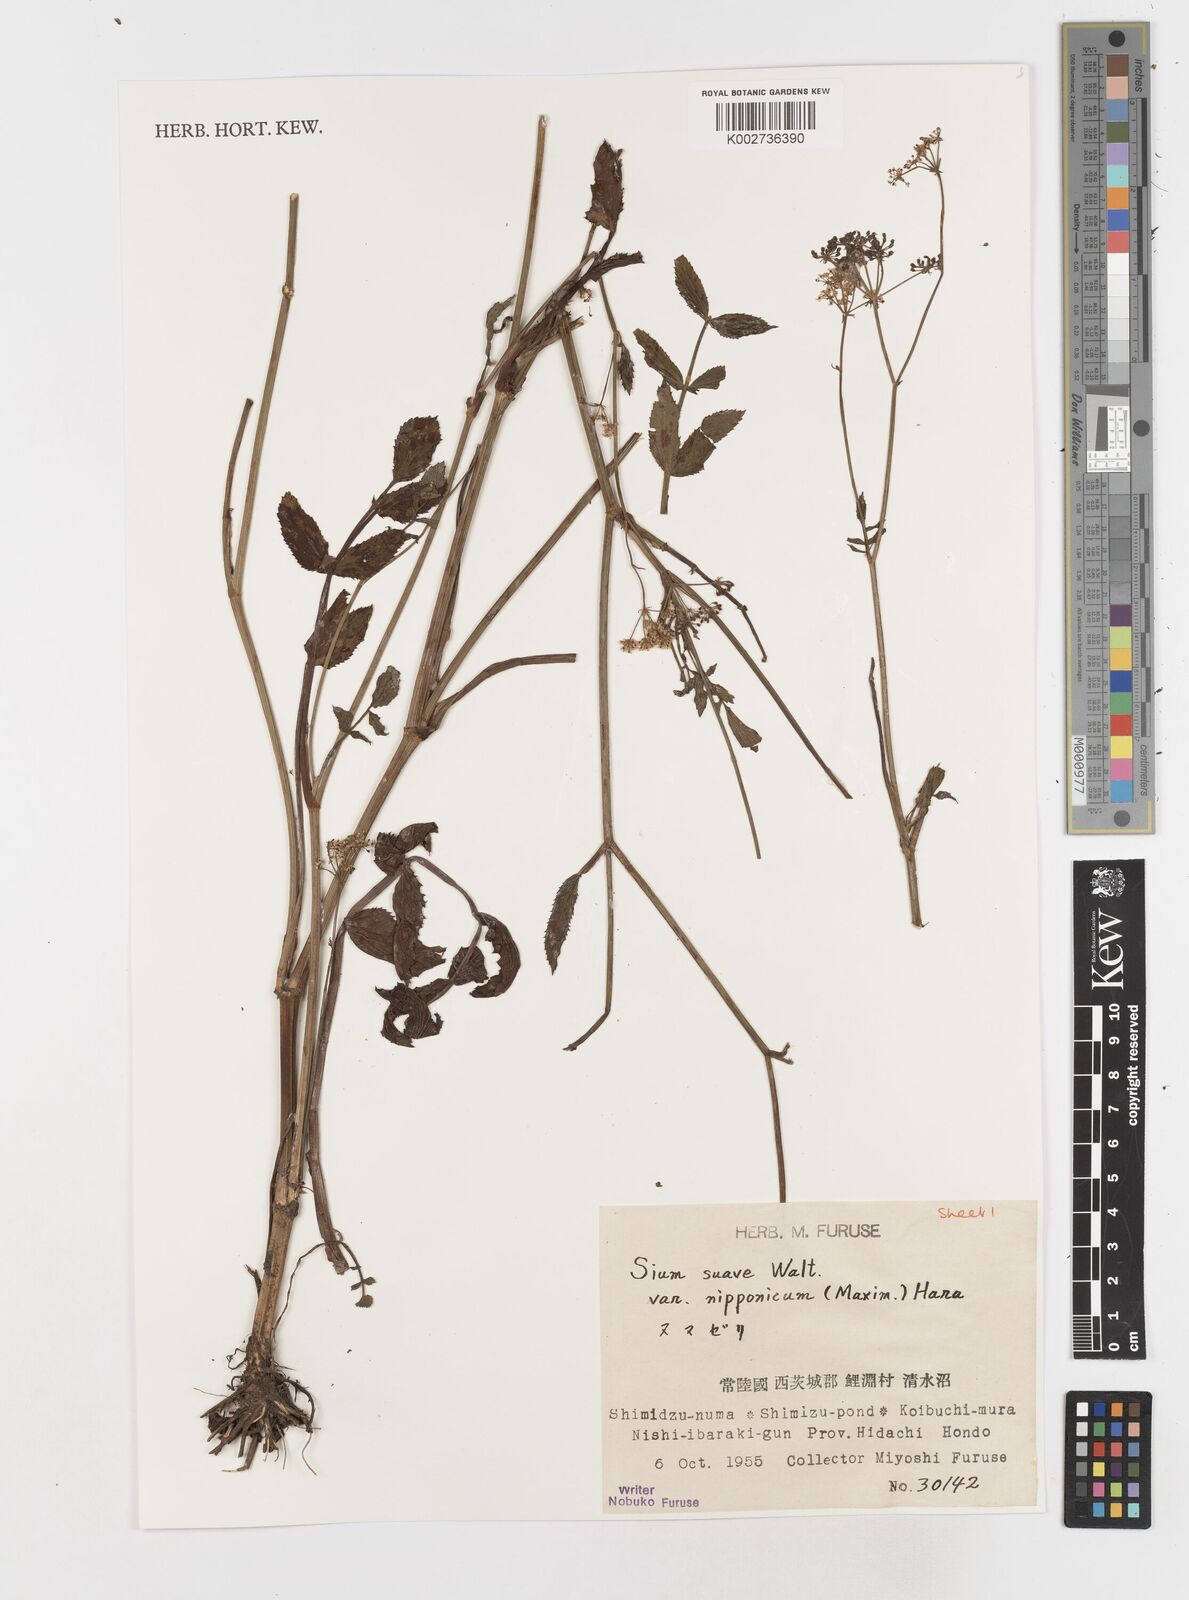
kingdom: Plantae
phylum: Tracheophyta
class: Magnoliopsida
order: Apiales
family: Apiaceae
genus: Sium
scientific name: Sium suave
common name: Hemlock water-parsnip
